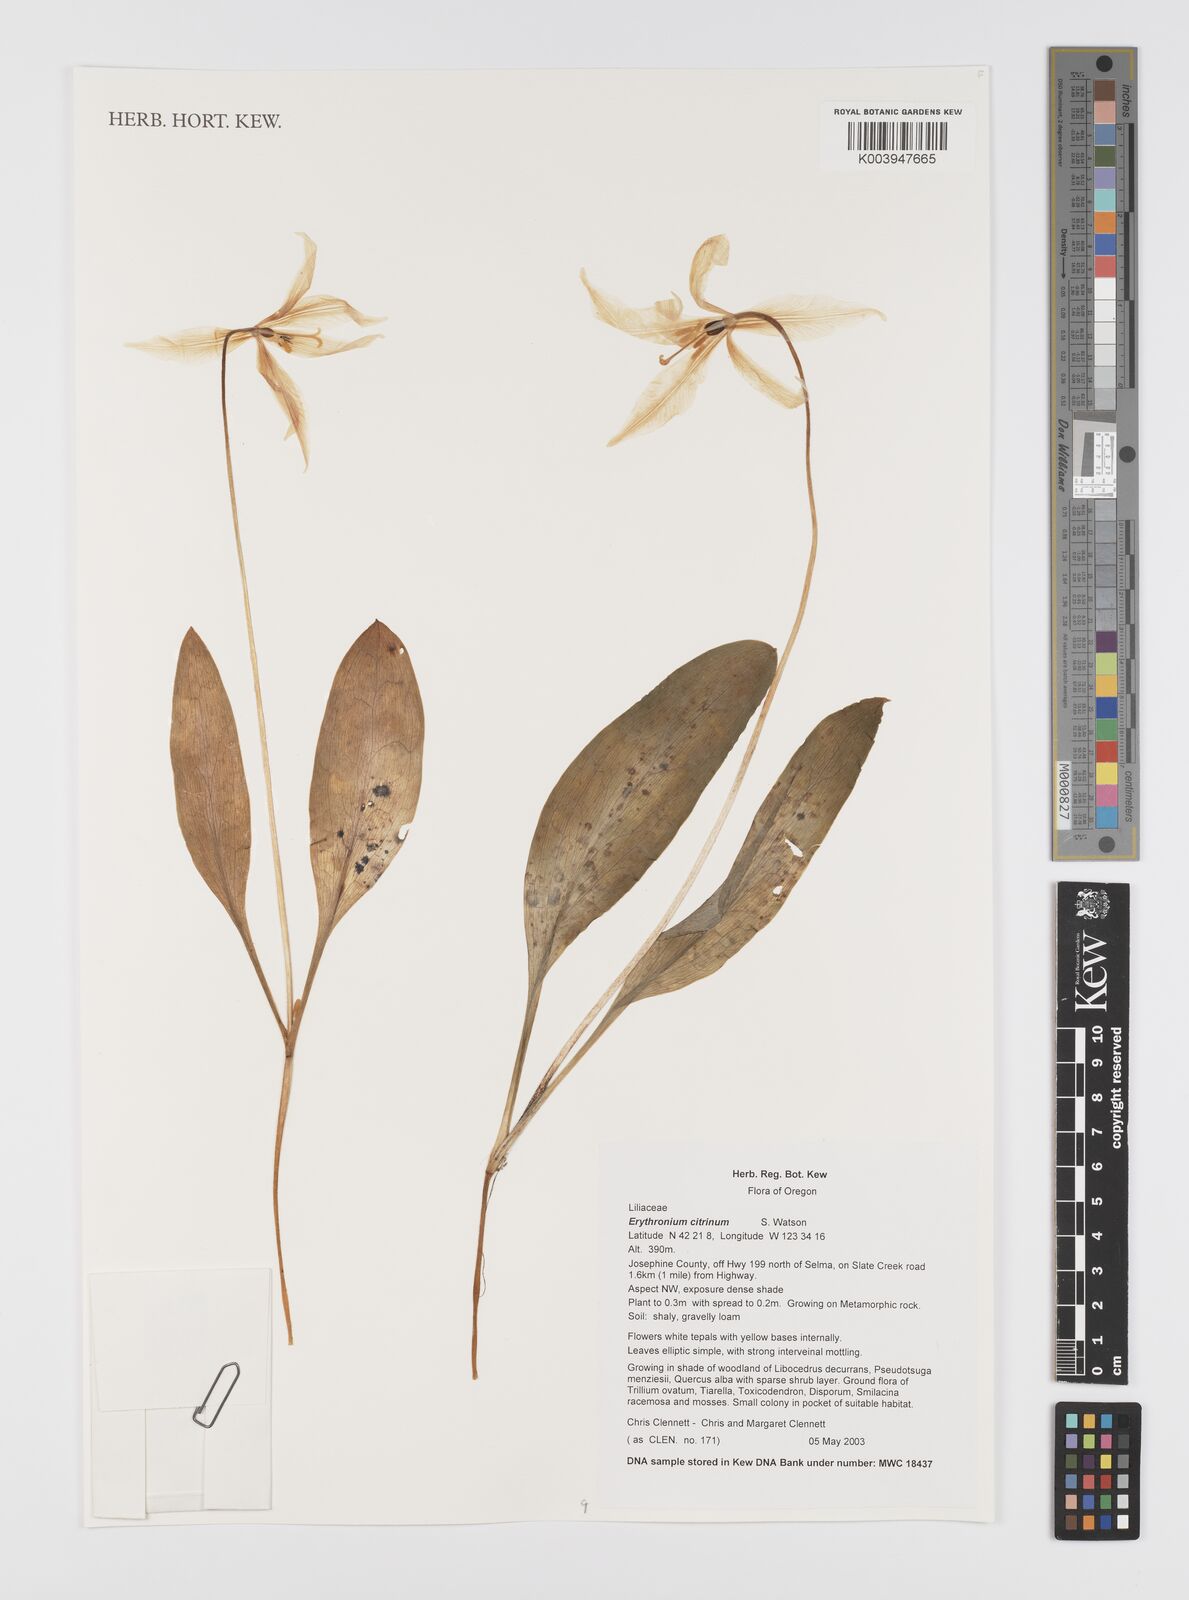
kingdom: Plantae
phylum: Tracheophyta
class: Liliopsida
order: Liliales
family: Liliaceae
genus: Erythronium
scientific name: Erythronium citrinum
